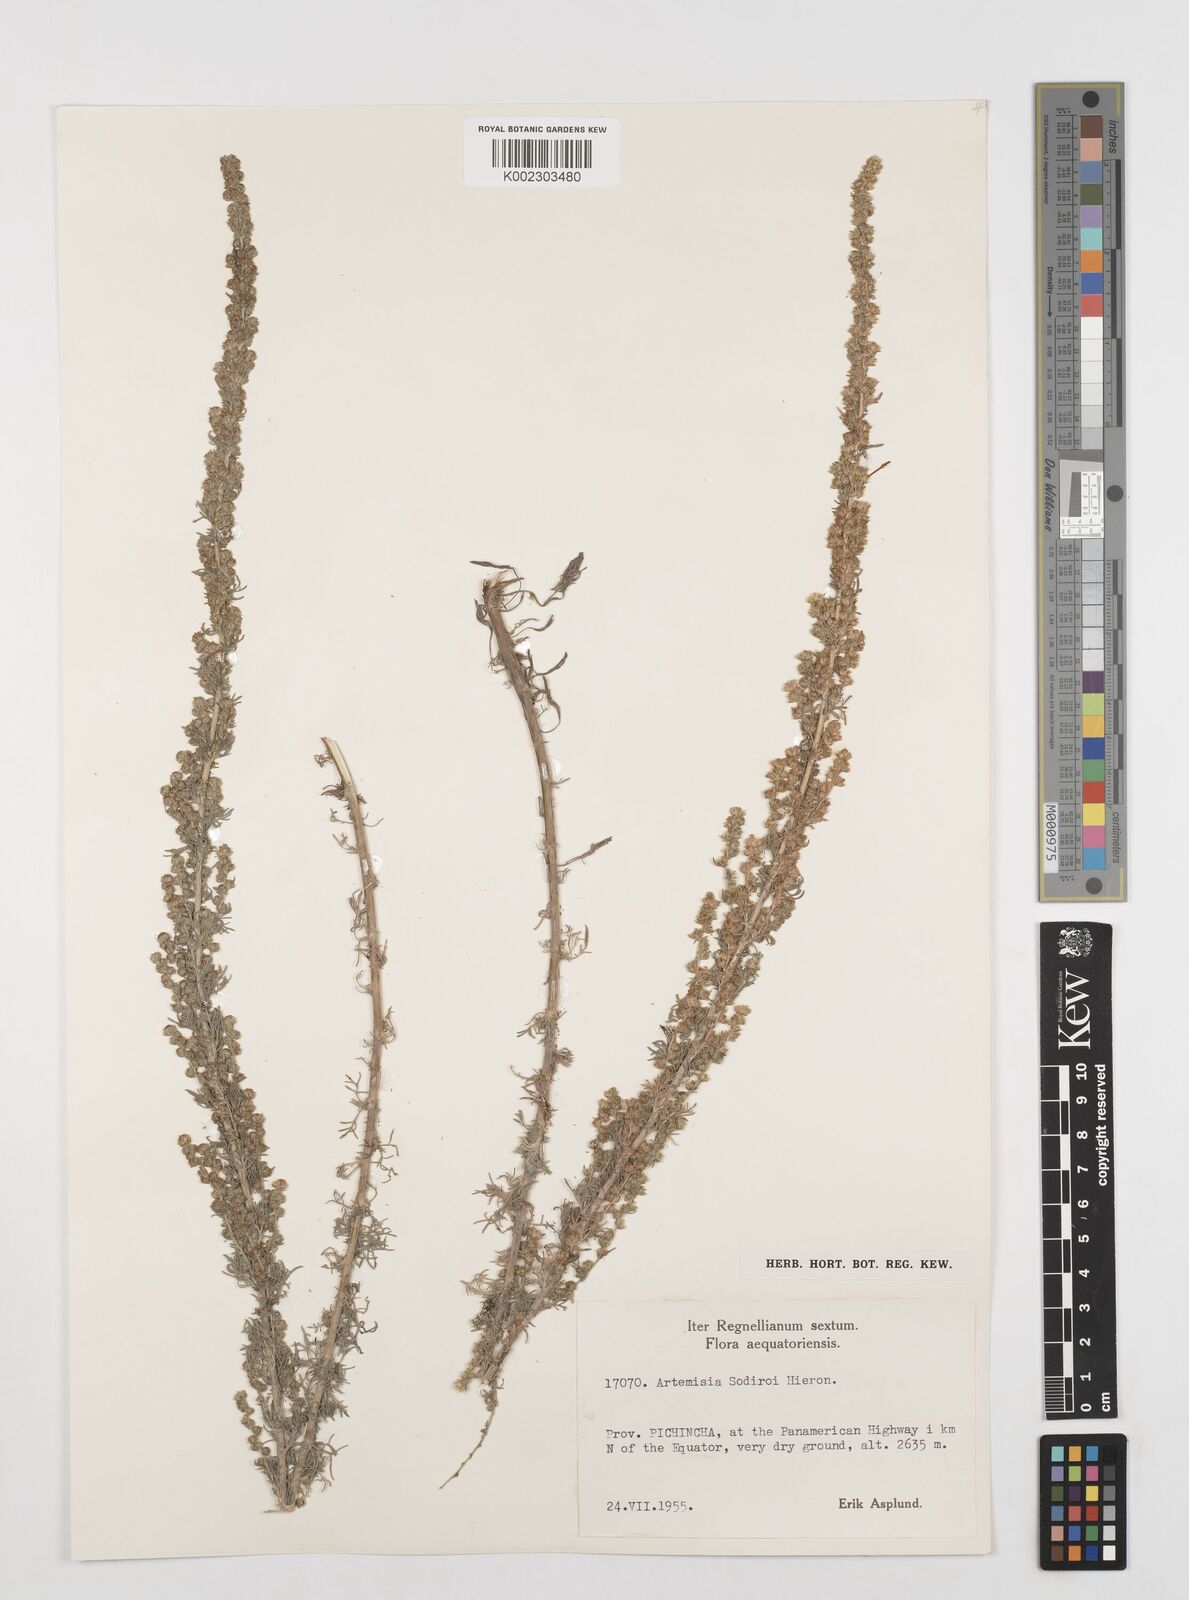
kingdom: Plantae
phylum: Tracheophyta
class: Magnoliopsida
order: Asterales
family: Asteraceae
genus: Artemisia
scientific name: Artemisia sodiroi
